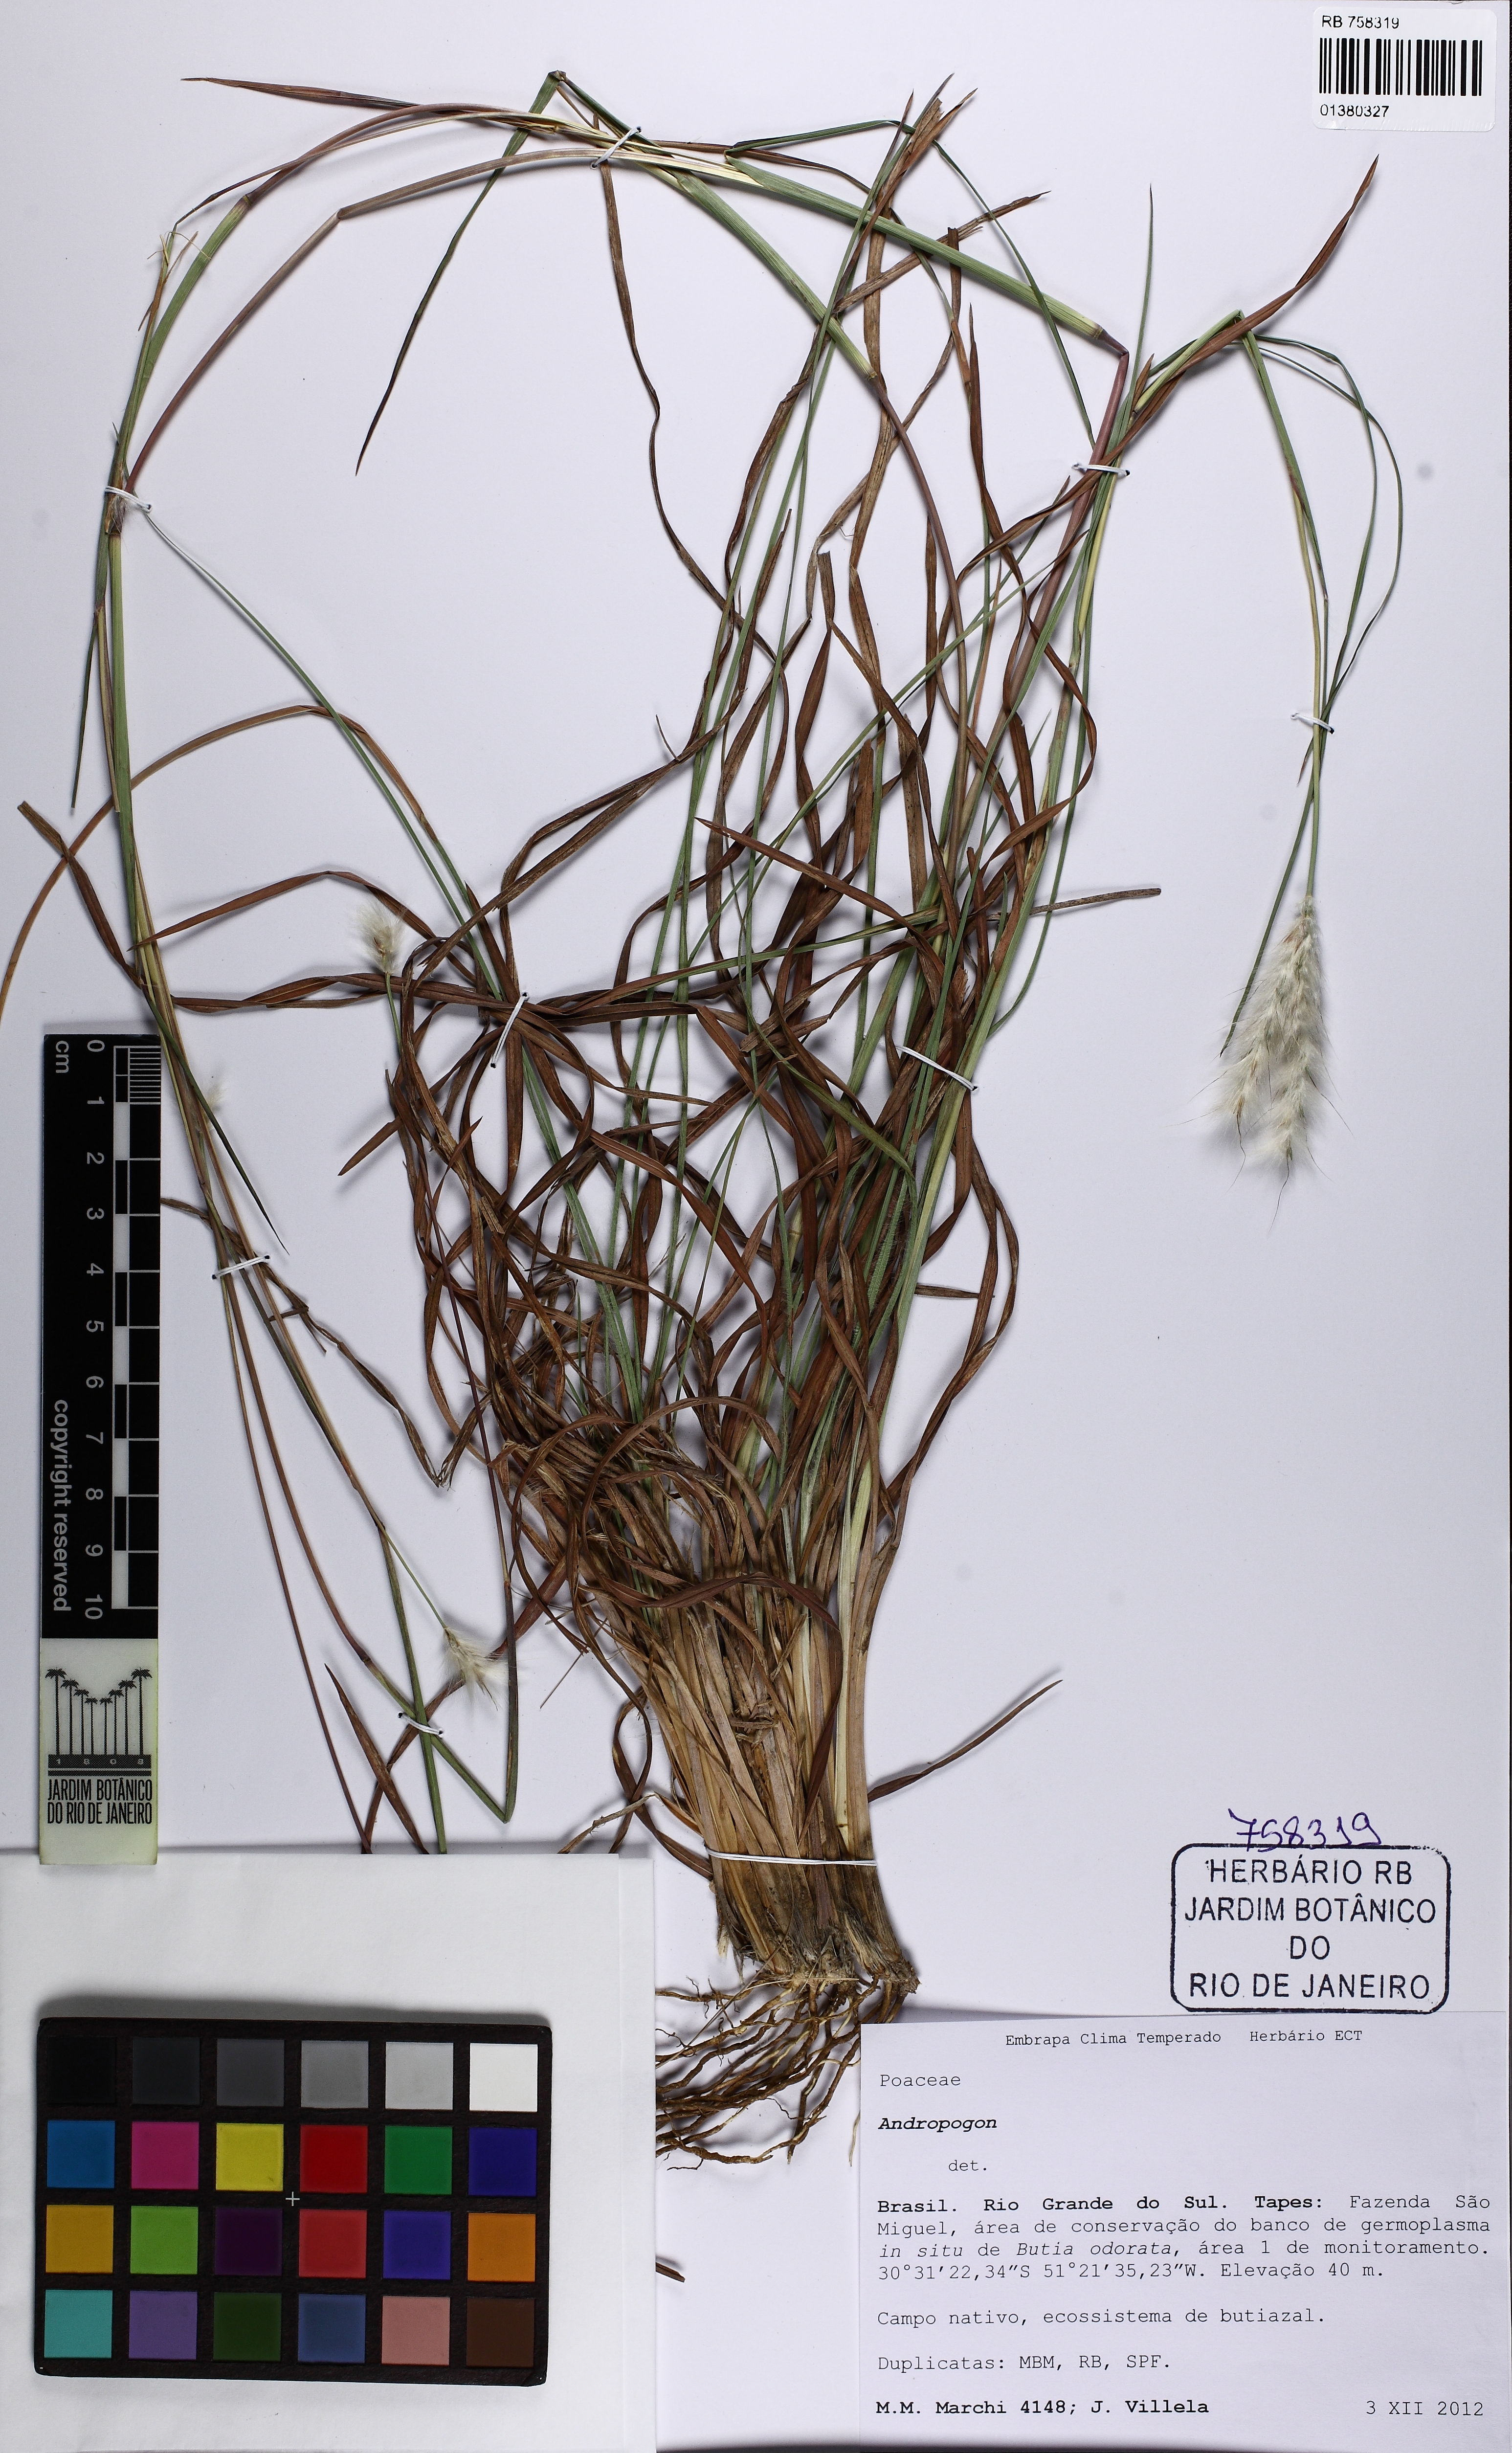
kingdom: Plantae
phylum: Tracheophyta
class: Liliopsida
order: Poales
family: Poaceae
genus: Andropogon
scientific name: Andropogon
